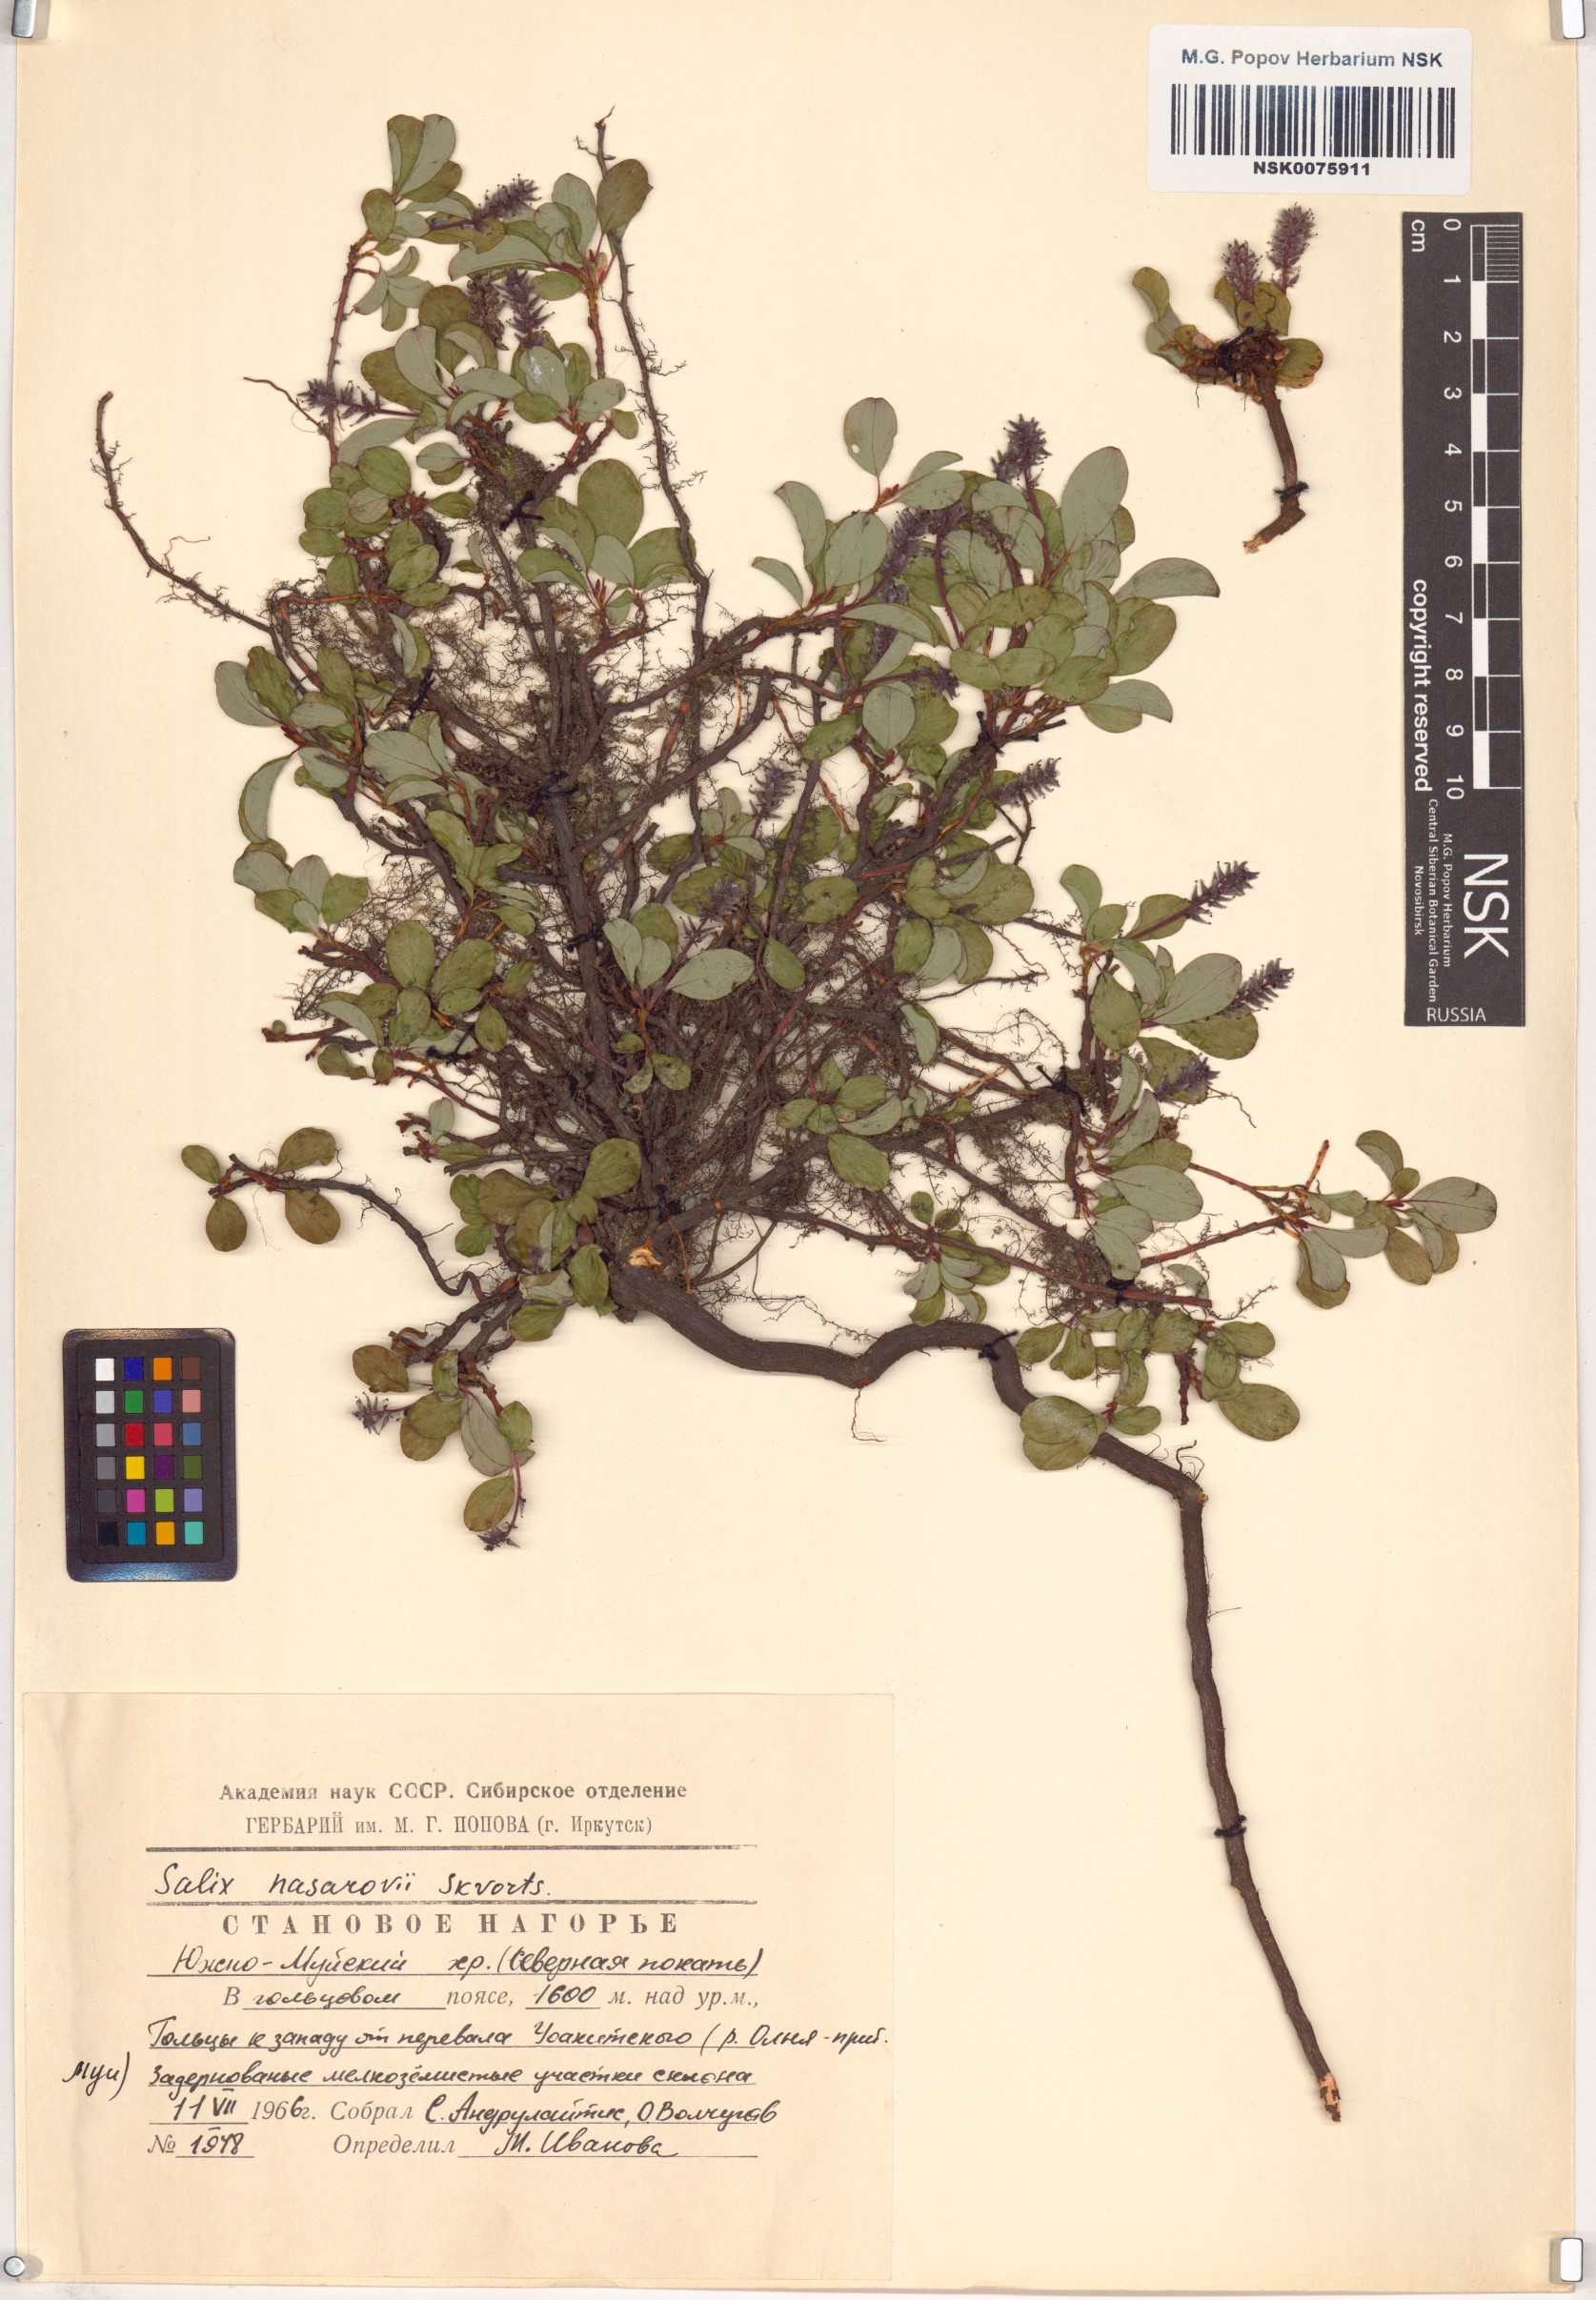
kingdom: Plantae
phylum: Tracheophyta
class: Magnoliopsida
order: Malpighiales
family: Salicaceae
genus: Salix
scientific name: Salix nasarovii
